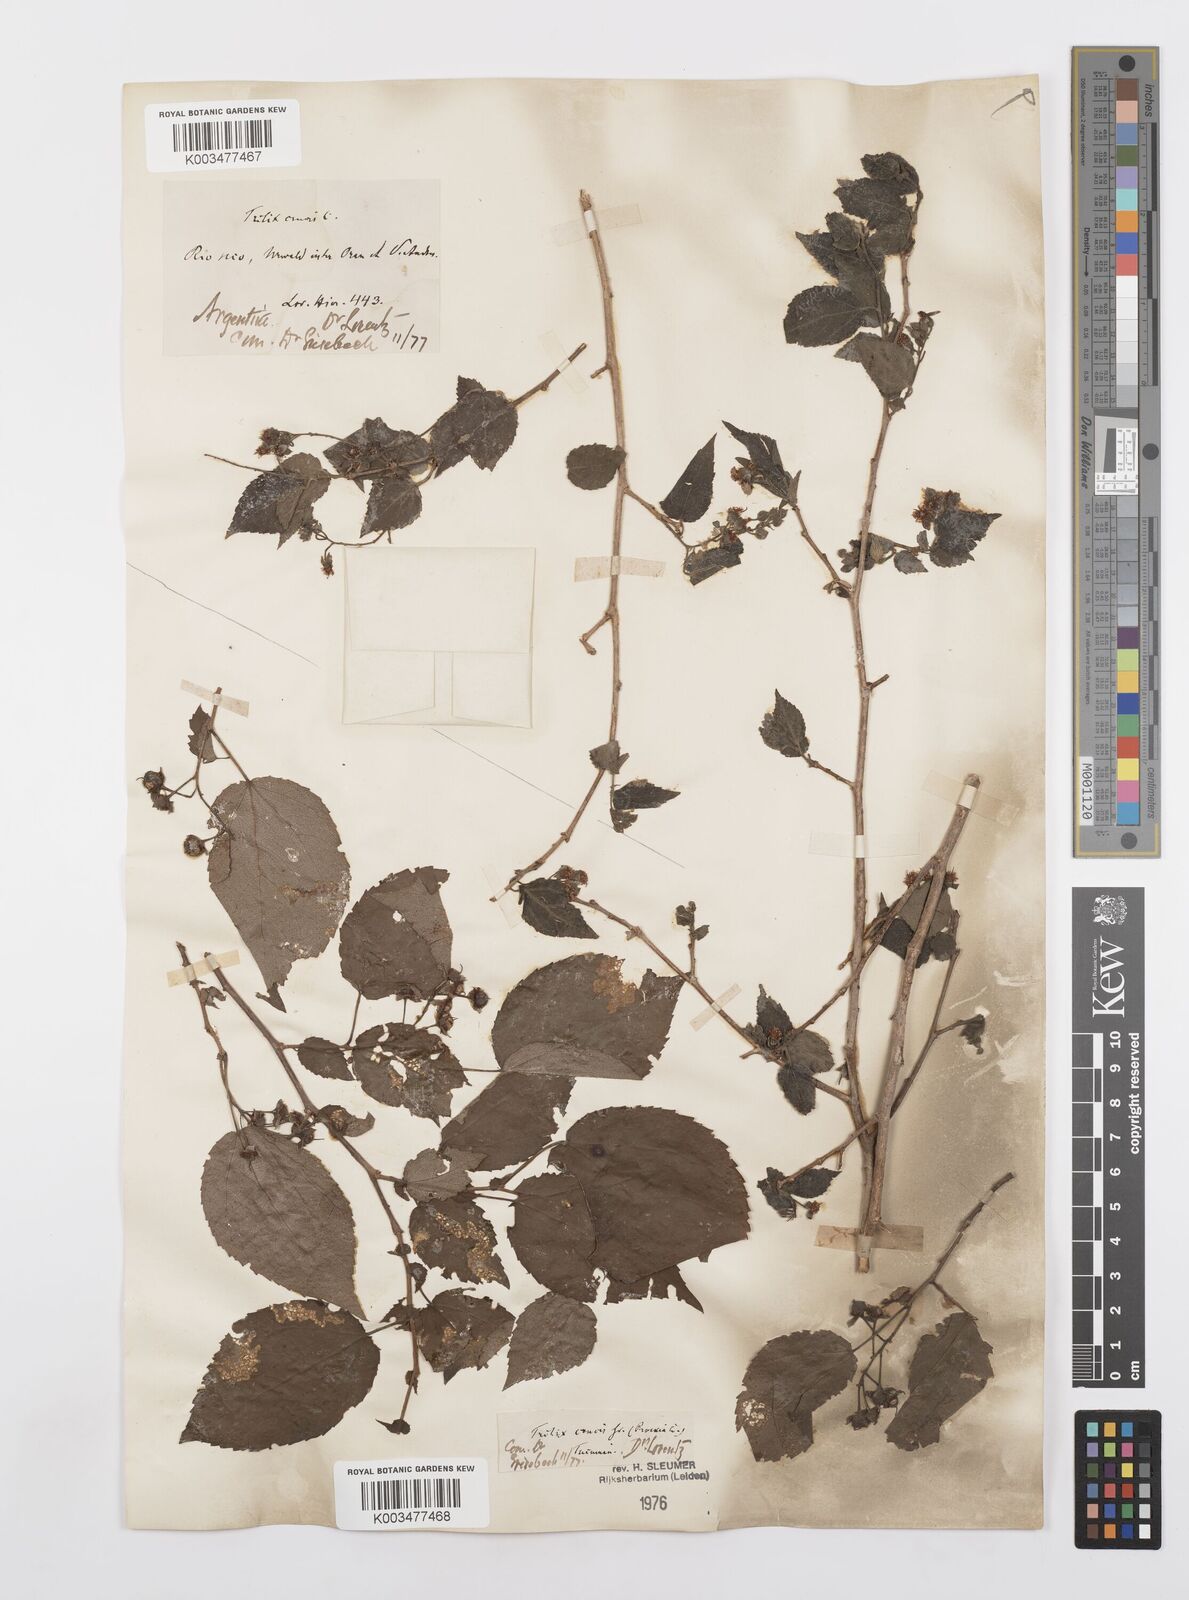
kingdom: Plantae
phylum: Tracheophyta
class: Magnoliopsida
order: Malpighiales
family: Salicaceae
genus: Prockia
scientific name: Prockia crucis
